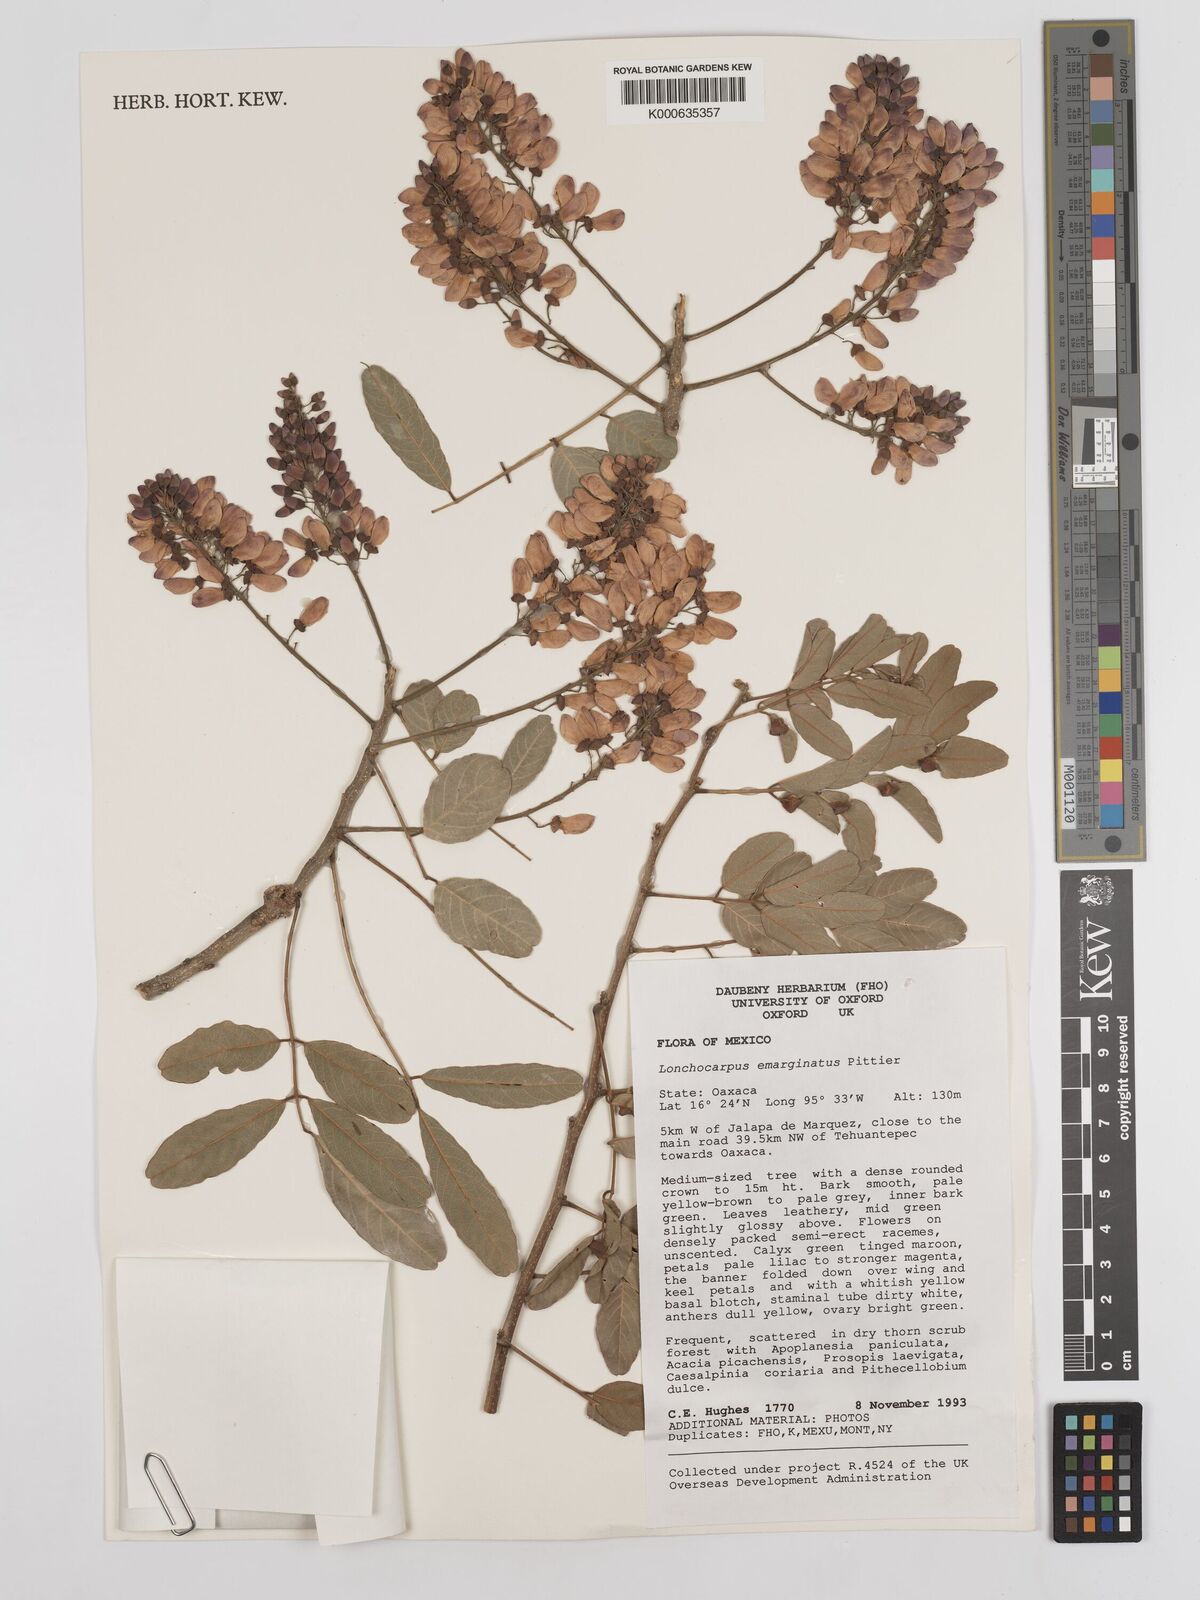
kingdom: Plantae
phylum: Tracheophyta
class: Magnoliopsida
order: Fabales
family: Fabaceae
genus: Lonchocarpus
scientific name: Lonchocarpus emarginatus
